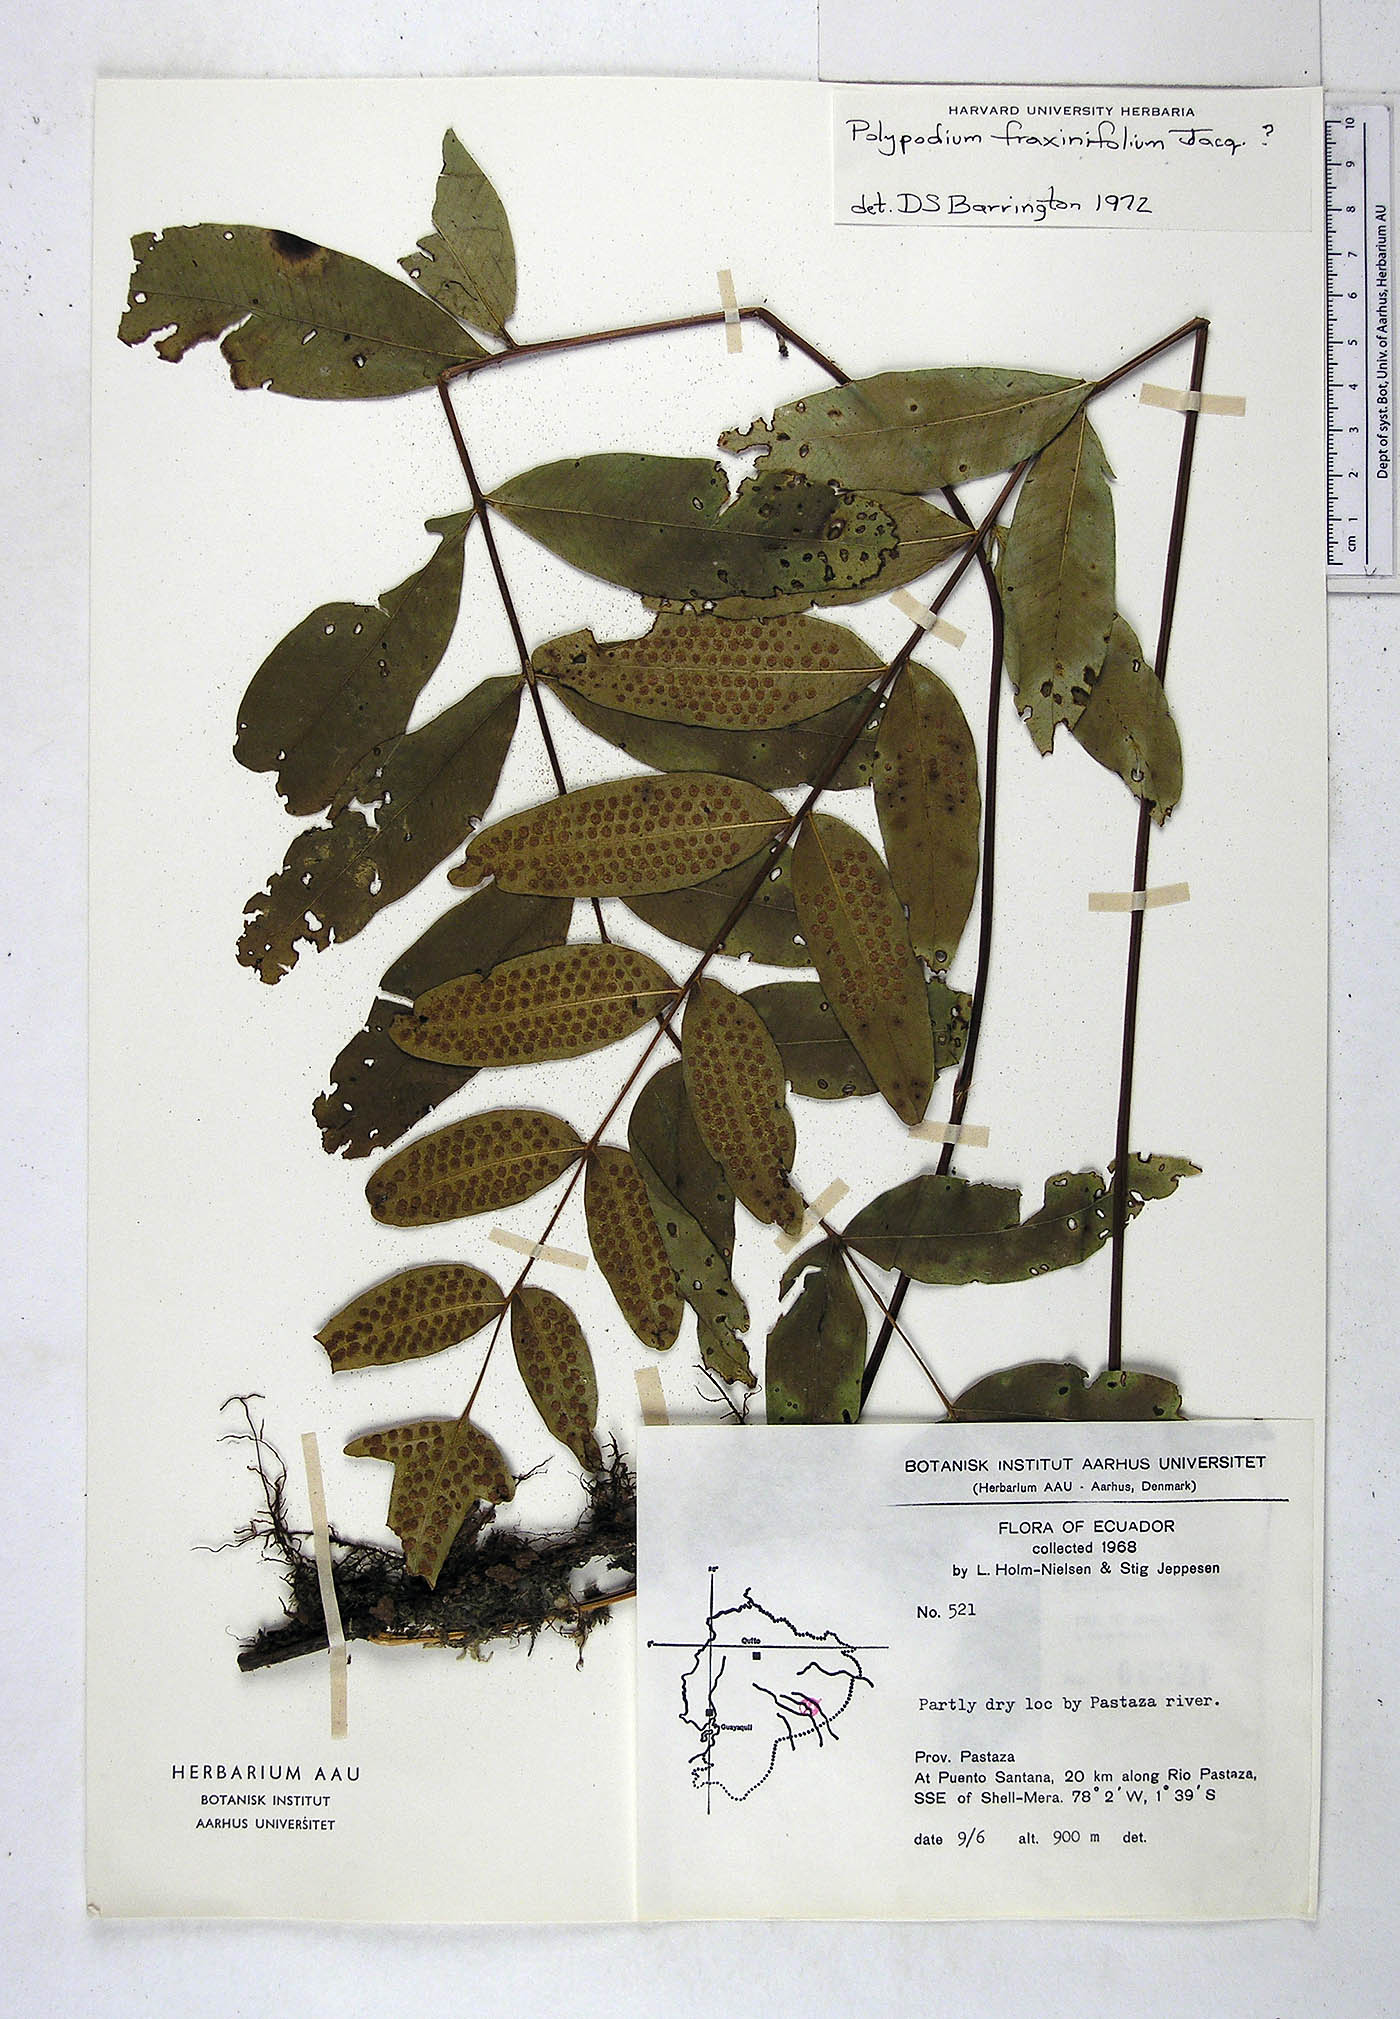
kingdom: Plantae
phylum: Tracheophyta
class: Polypodiopsida
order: Polypodiales
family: Polypodiaceae
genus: Serpocaulon
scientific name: Serpocaulon fraxinifolium
